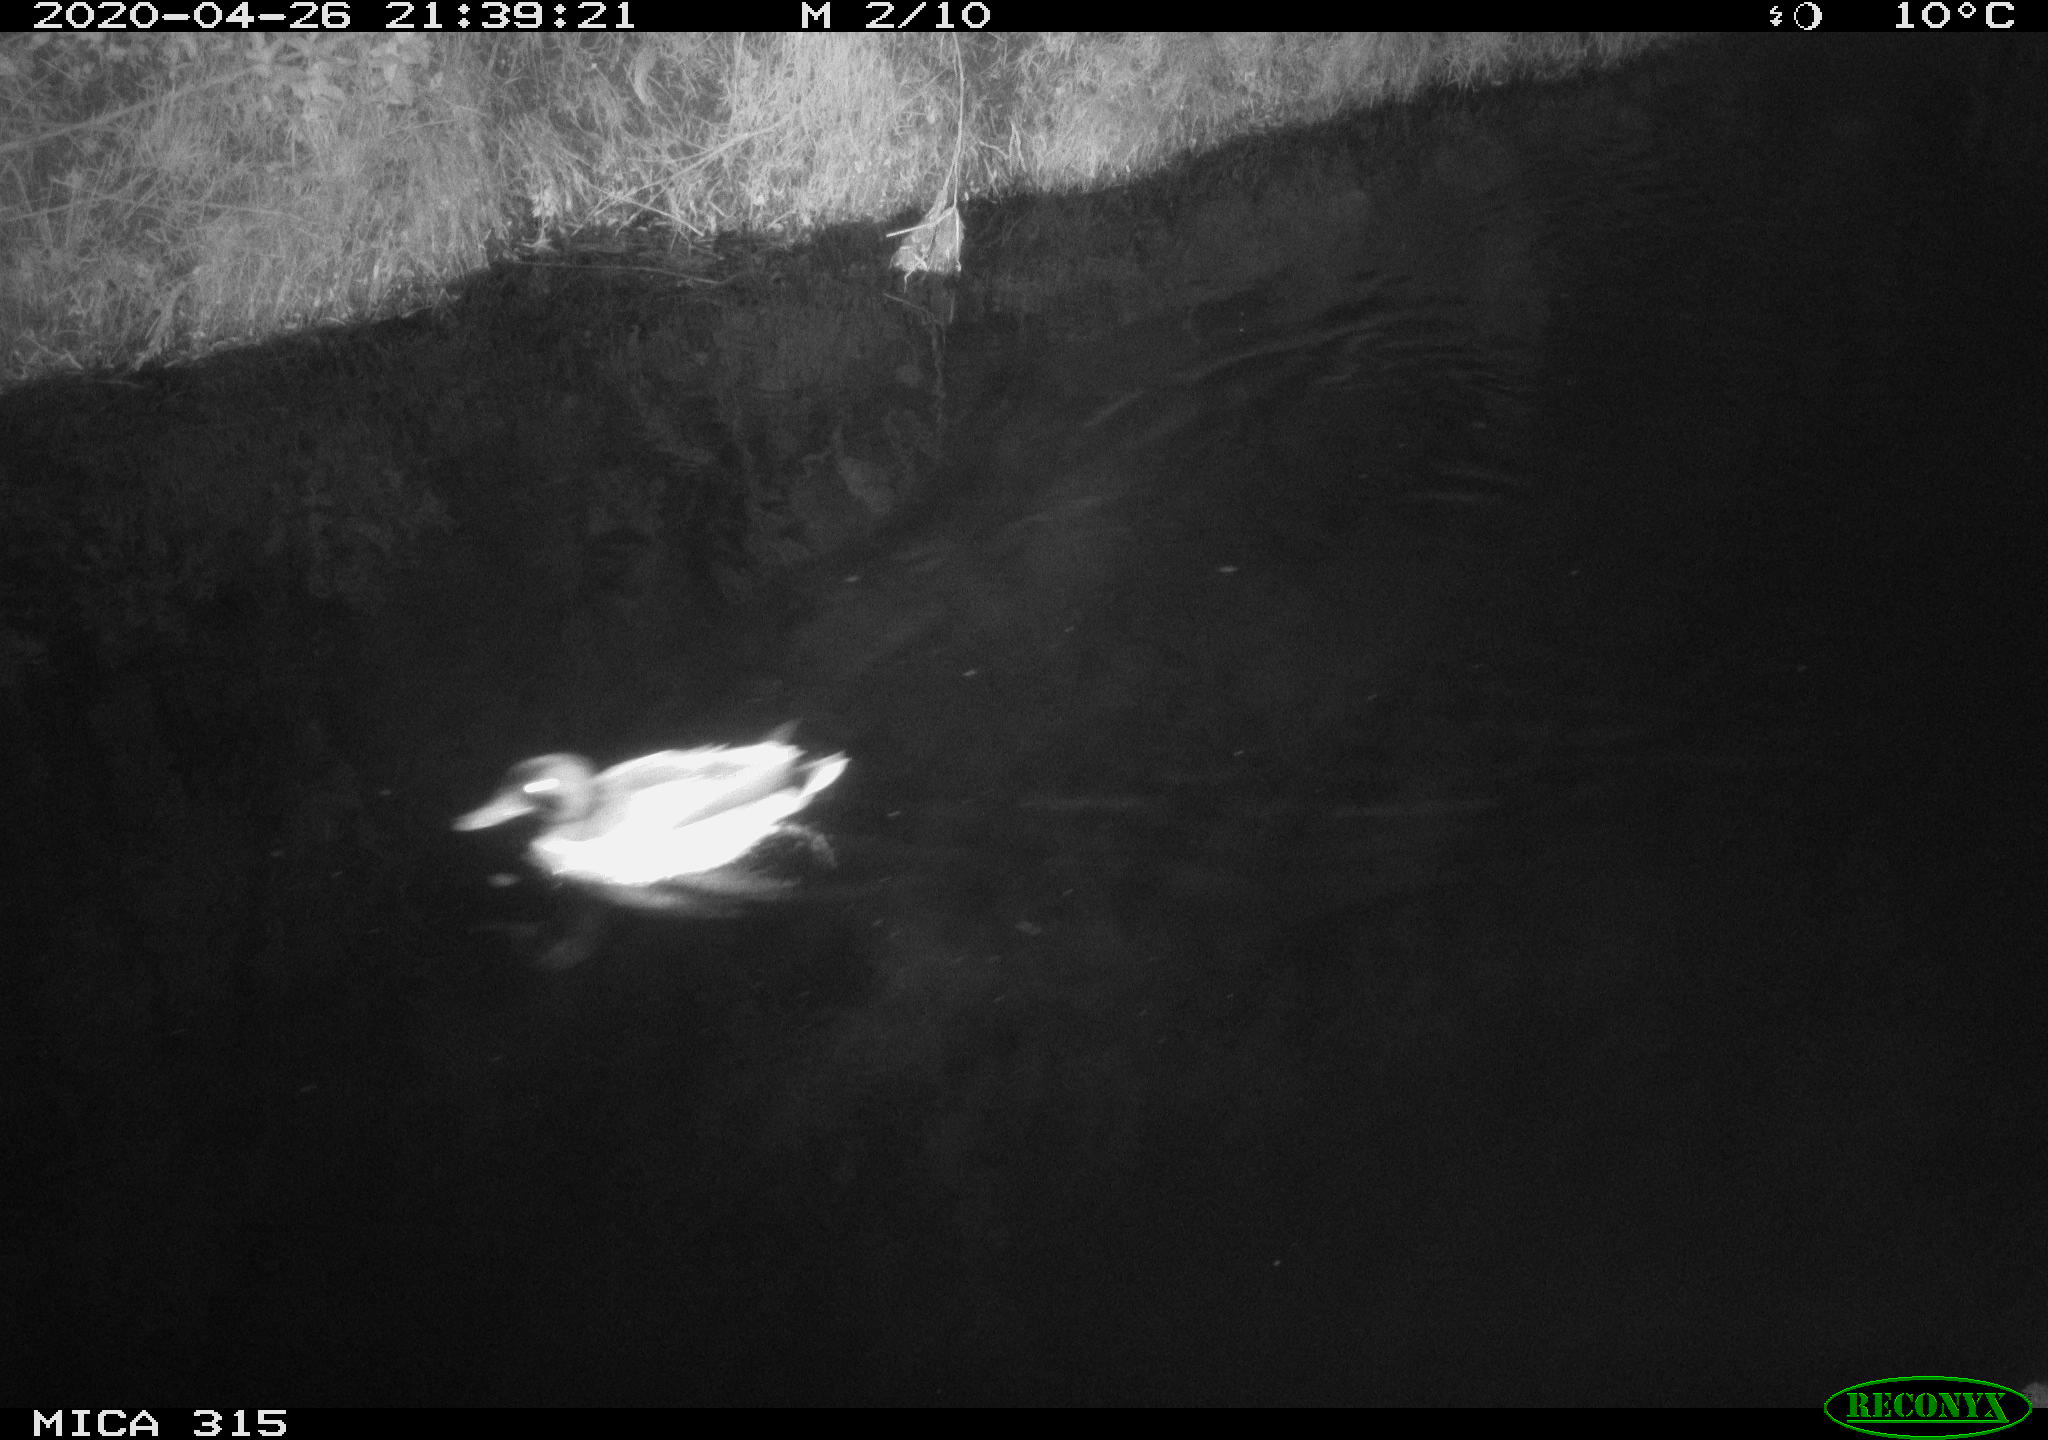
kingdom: Animalia
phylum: Chordata
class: Aves
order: Anseriformes
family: Anatidae
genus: Anas
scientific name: Anas platyrhynchos
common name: Mallard
